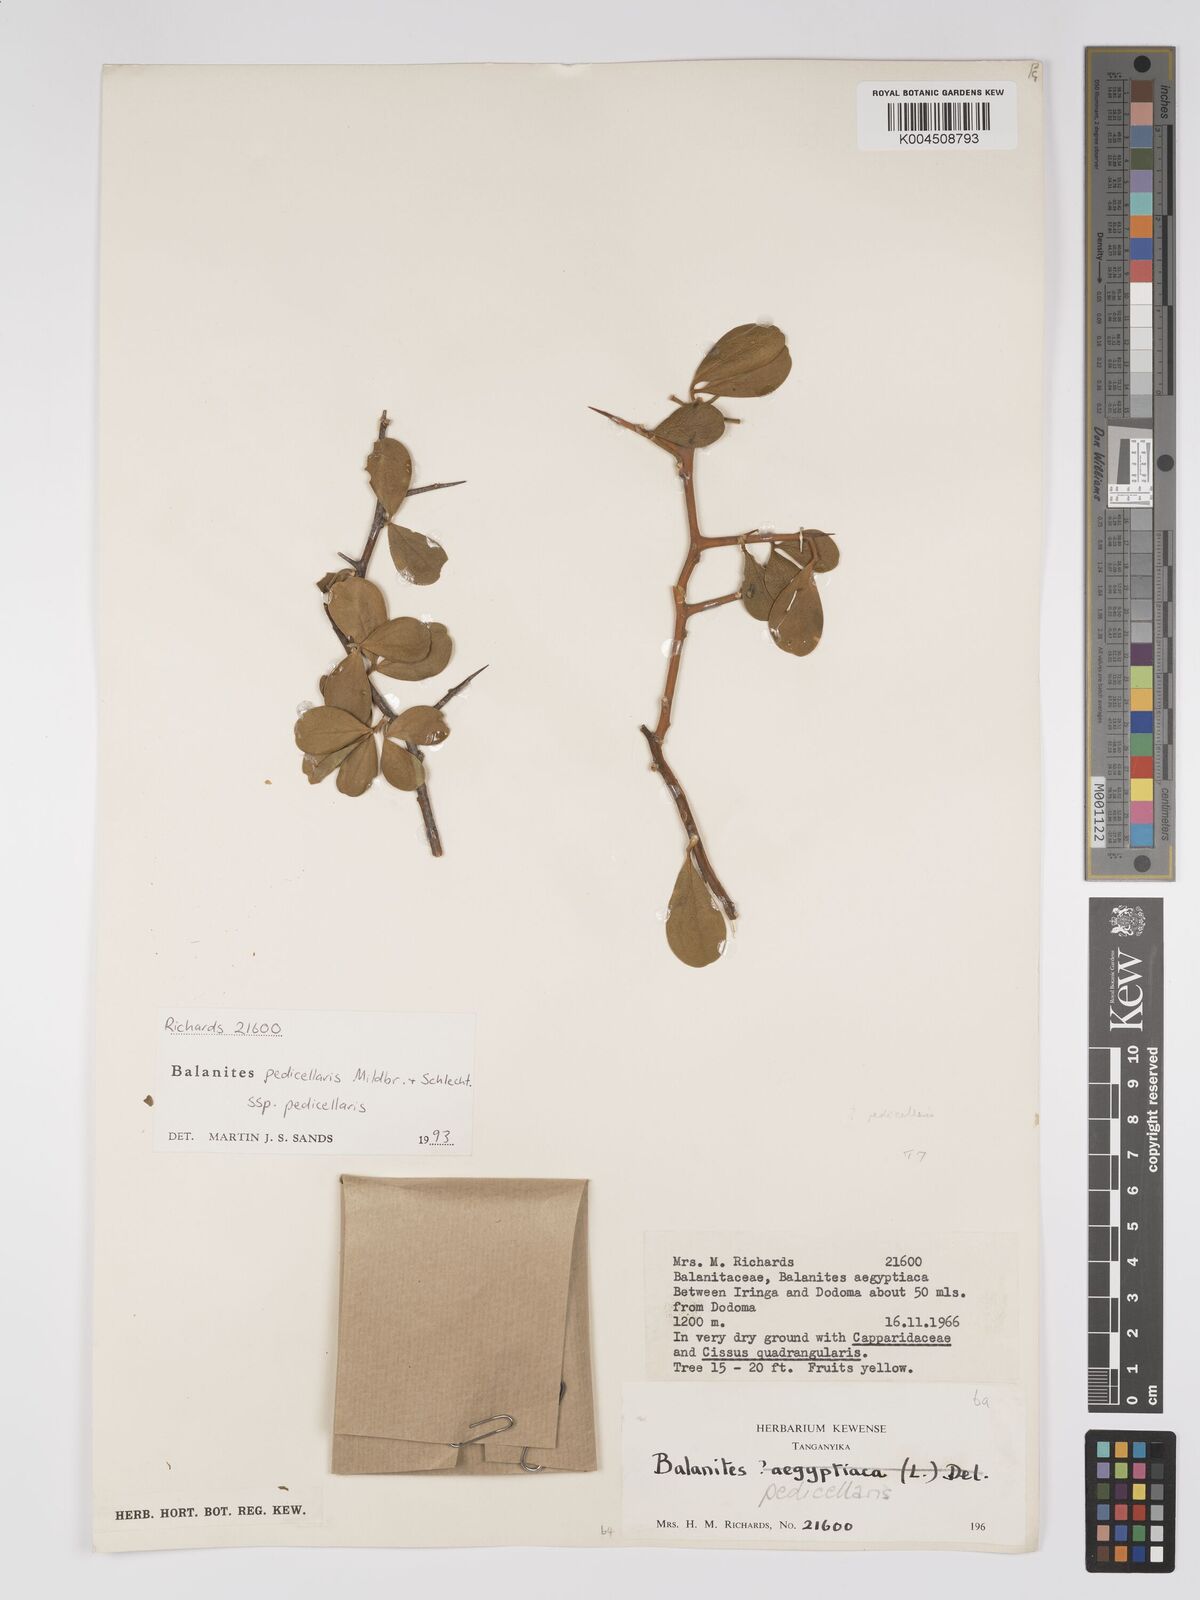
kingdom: Plantae
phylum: Tracheophyta
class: Magnoliopsida
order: Zygophyllales
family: Zygophyllaceae
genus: Balanites
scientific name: Balanites pedicellaris
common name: Small green-thorn
